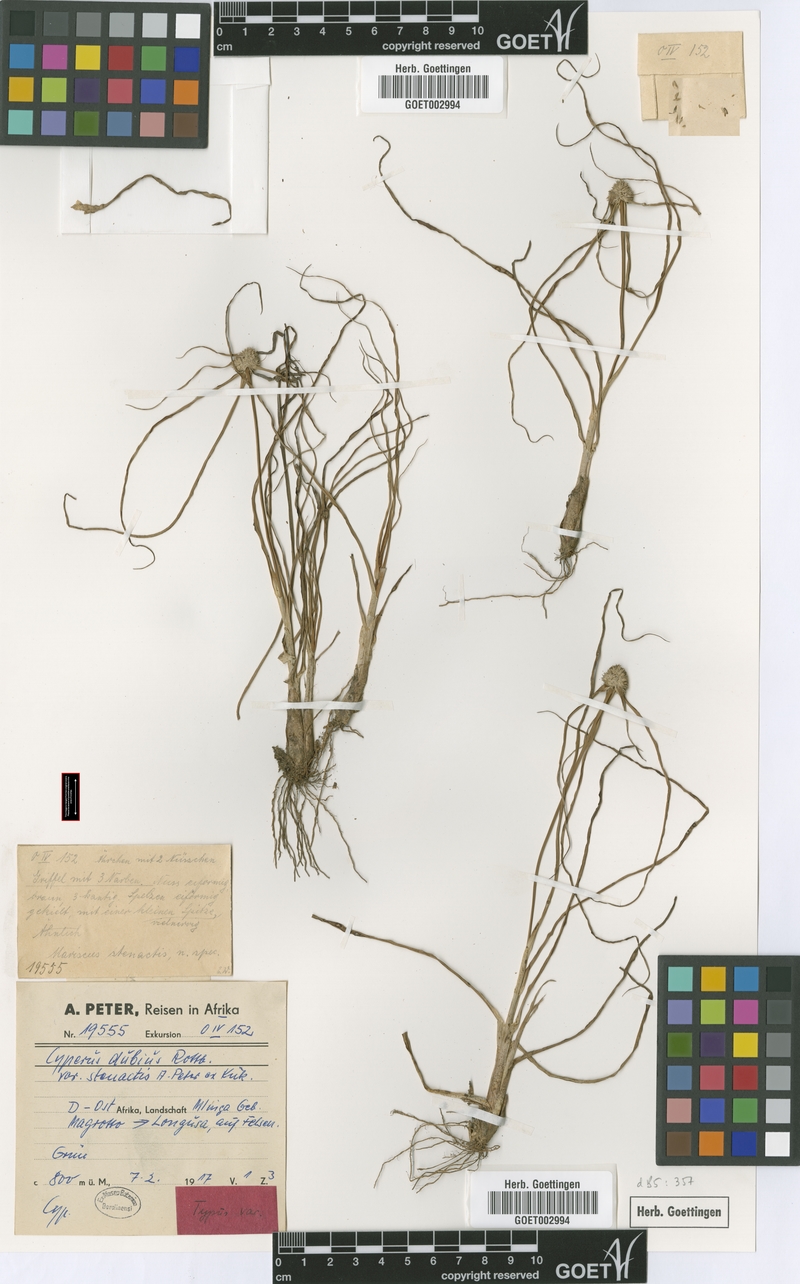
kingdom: Plantae
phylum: Tracheophyta
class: Liliopsida
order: Poales
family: Cyperaceae
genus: Cyperus
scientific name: Cyperus dubius
